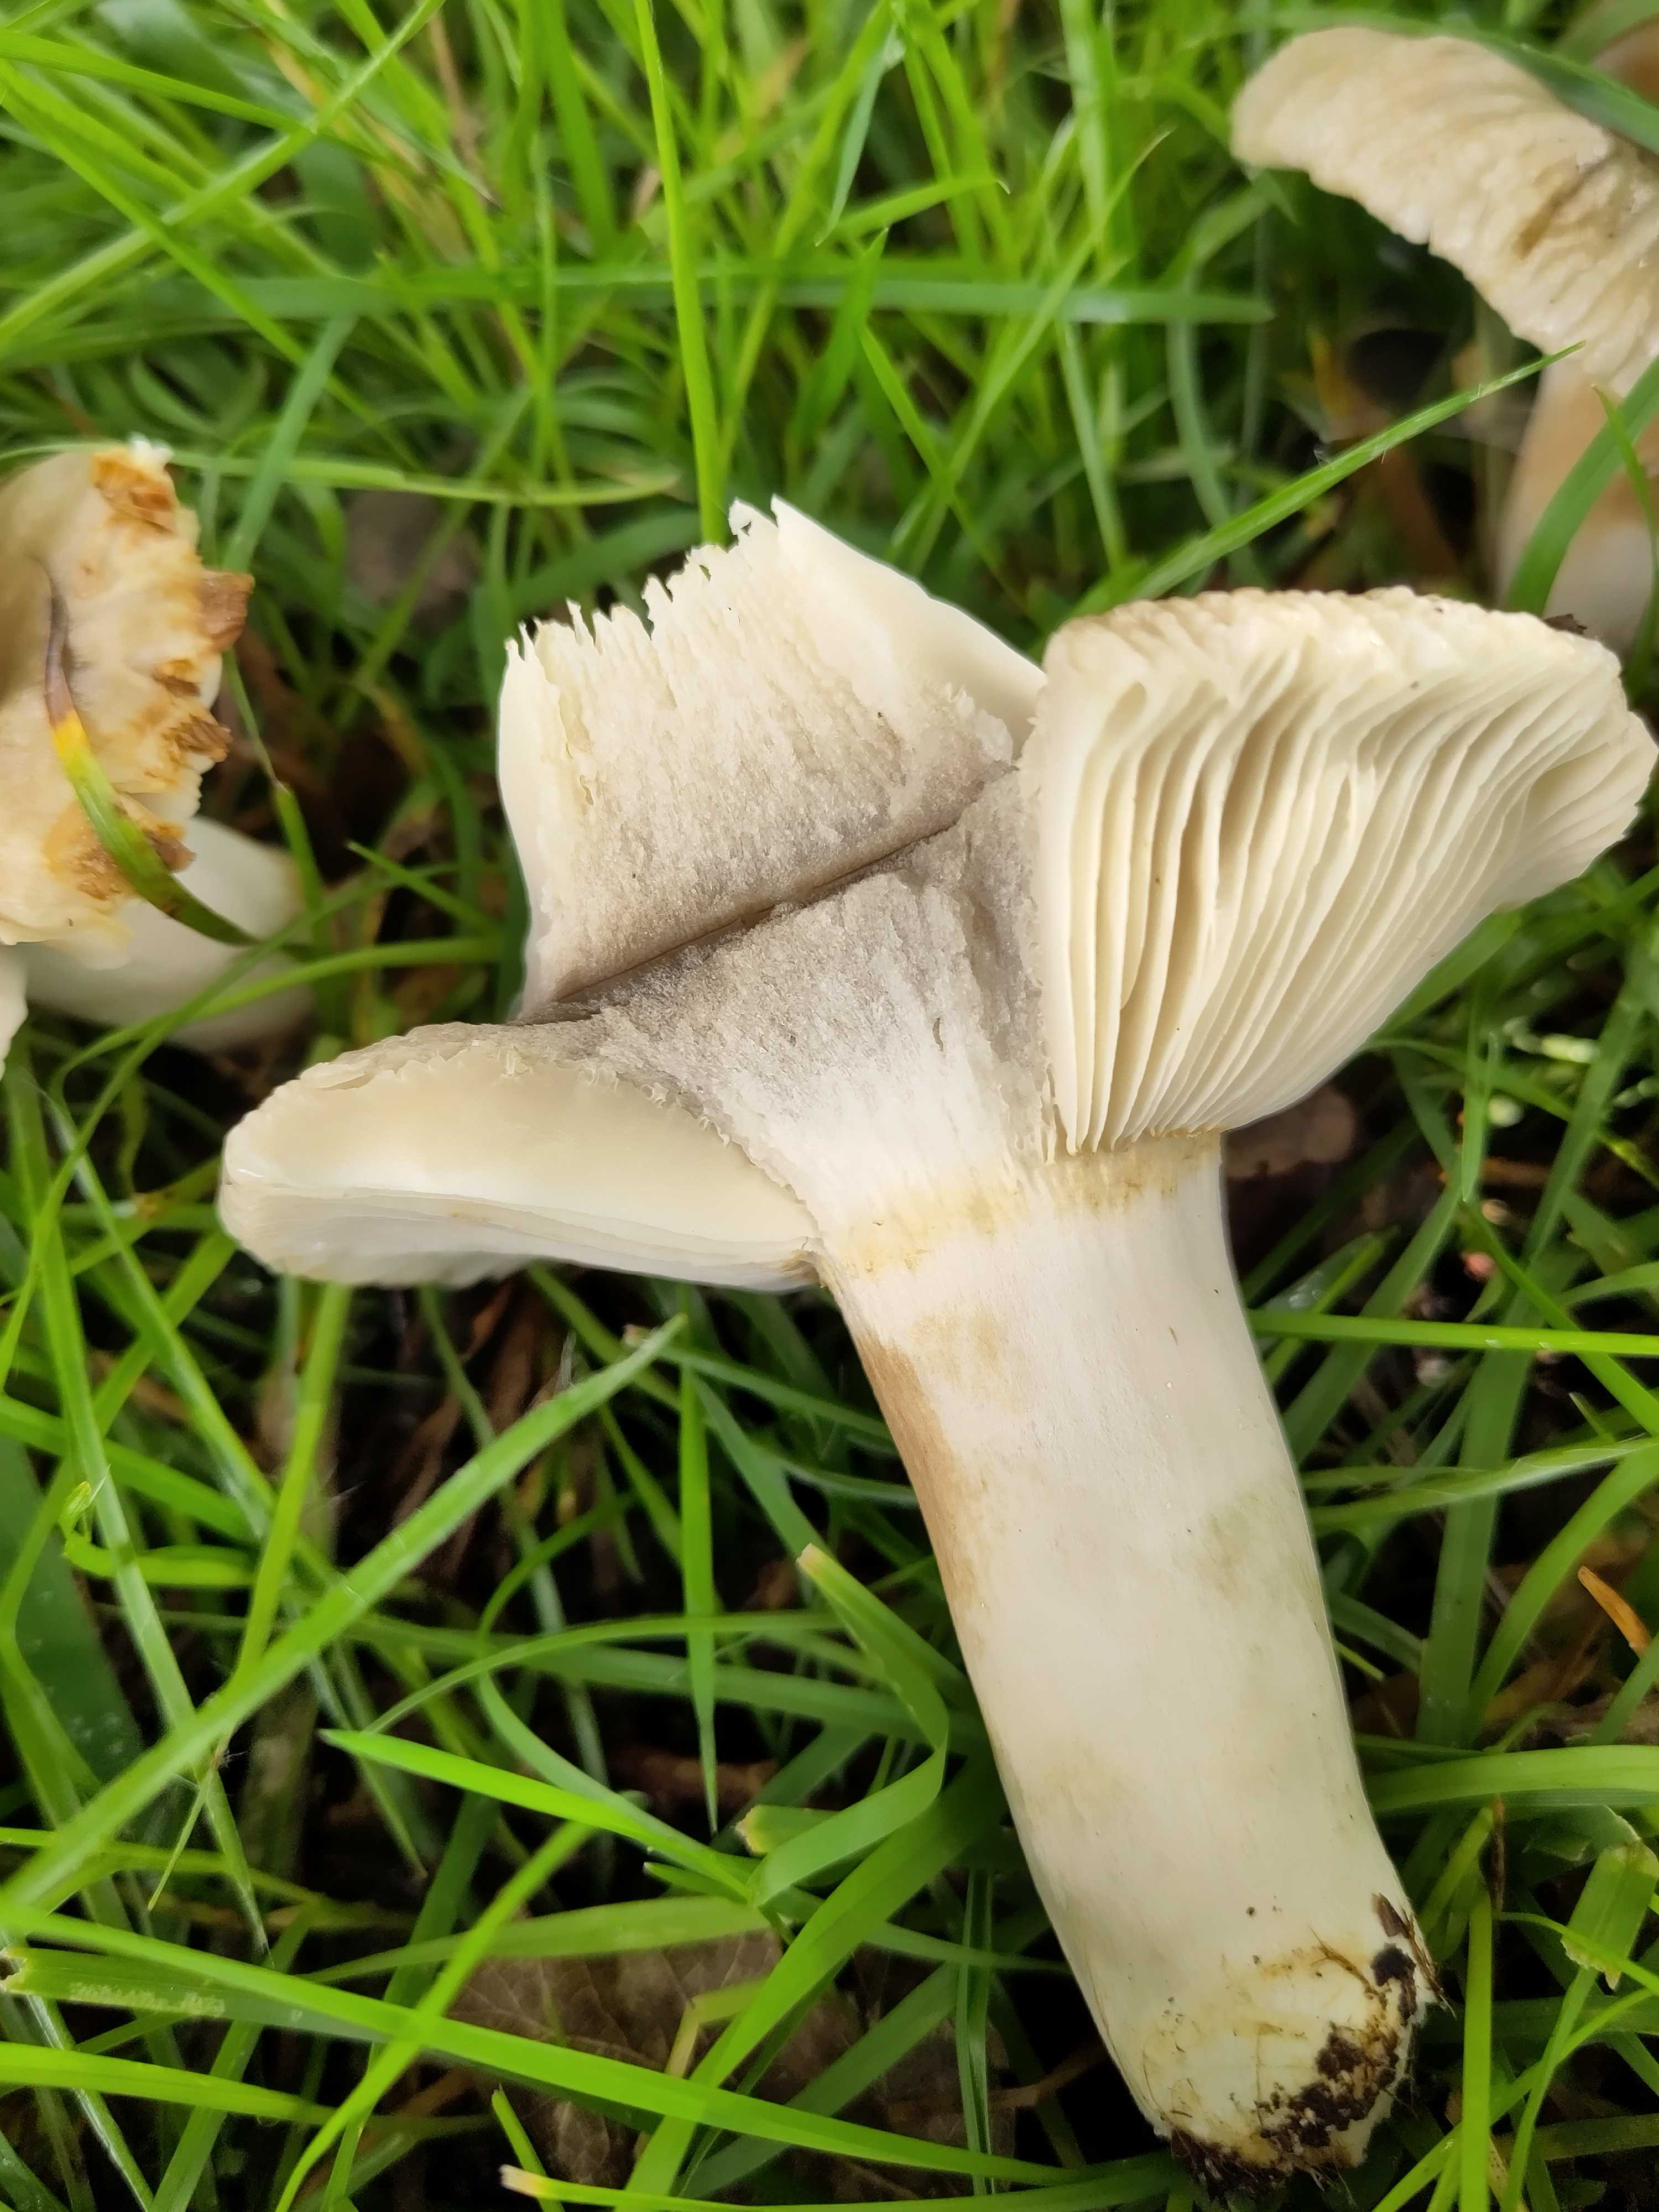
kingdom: Fungi
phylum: Basidiomycota
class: Agaricomycetes
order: Russulales
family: Russulaceae
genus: Russula
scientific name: Russula
